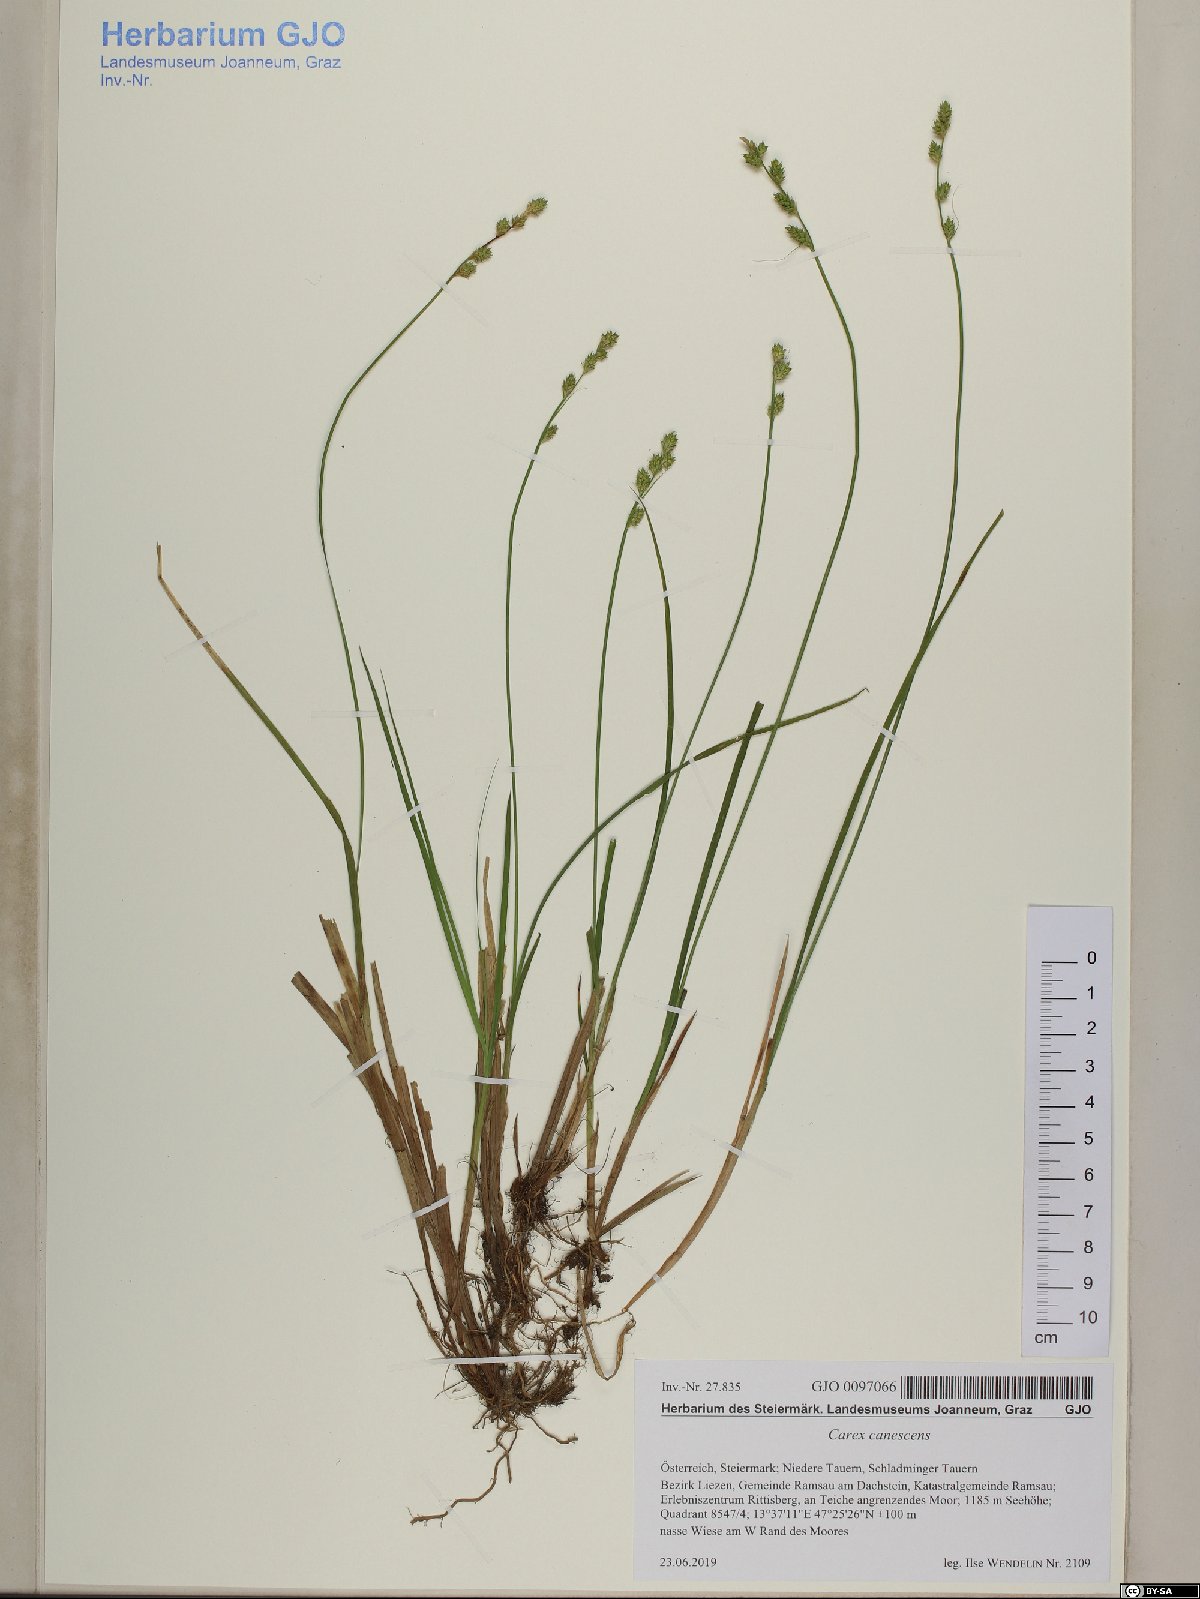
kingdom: Plantae
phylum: Tracheophyta
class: Liliopsida
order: Poales
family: Cyperaceae
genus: Carex
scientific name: Carex canescens
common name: White sedge
